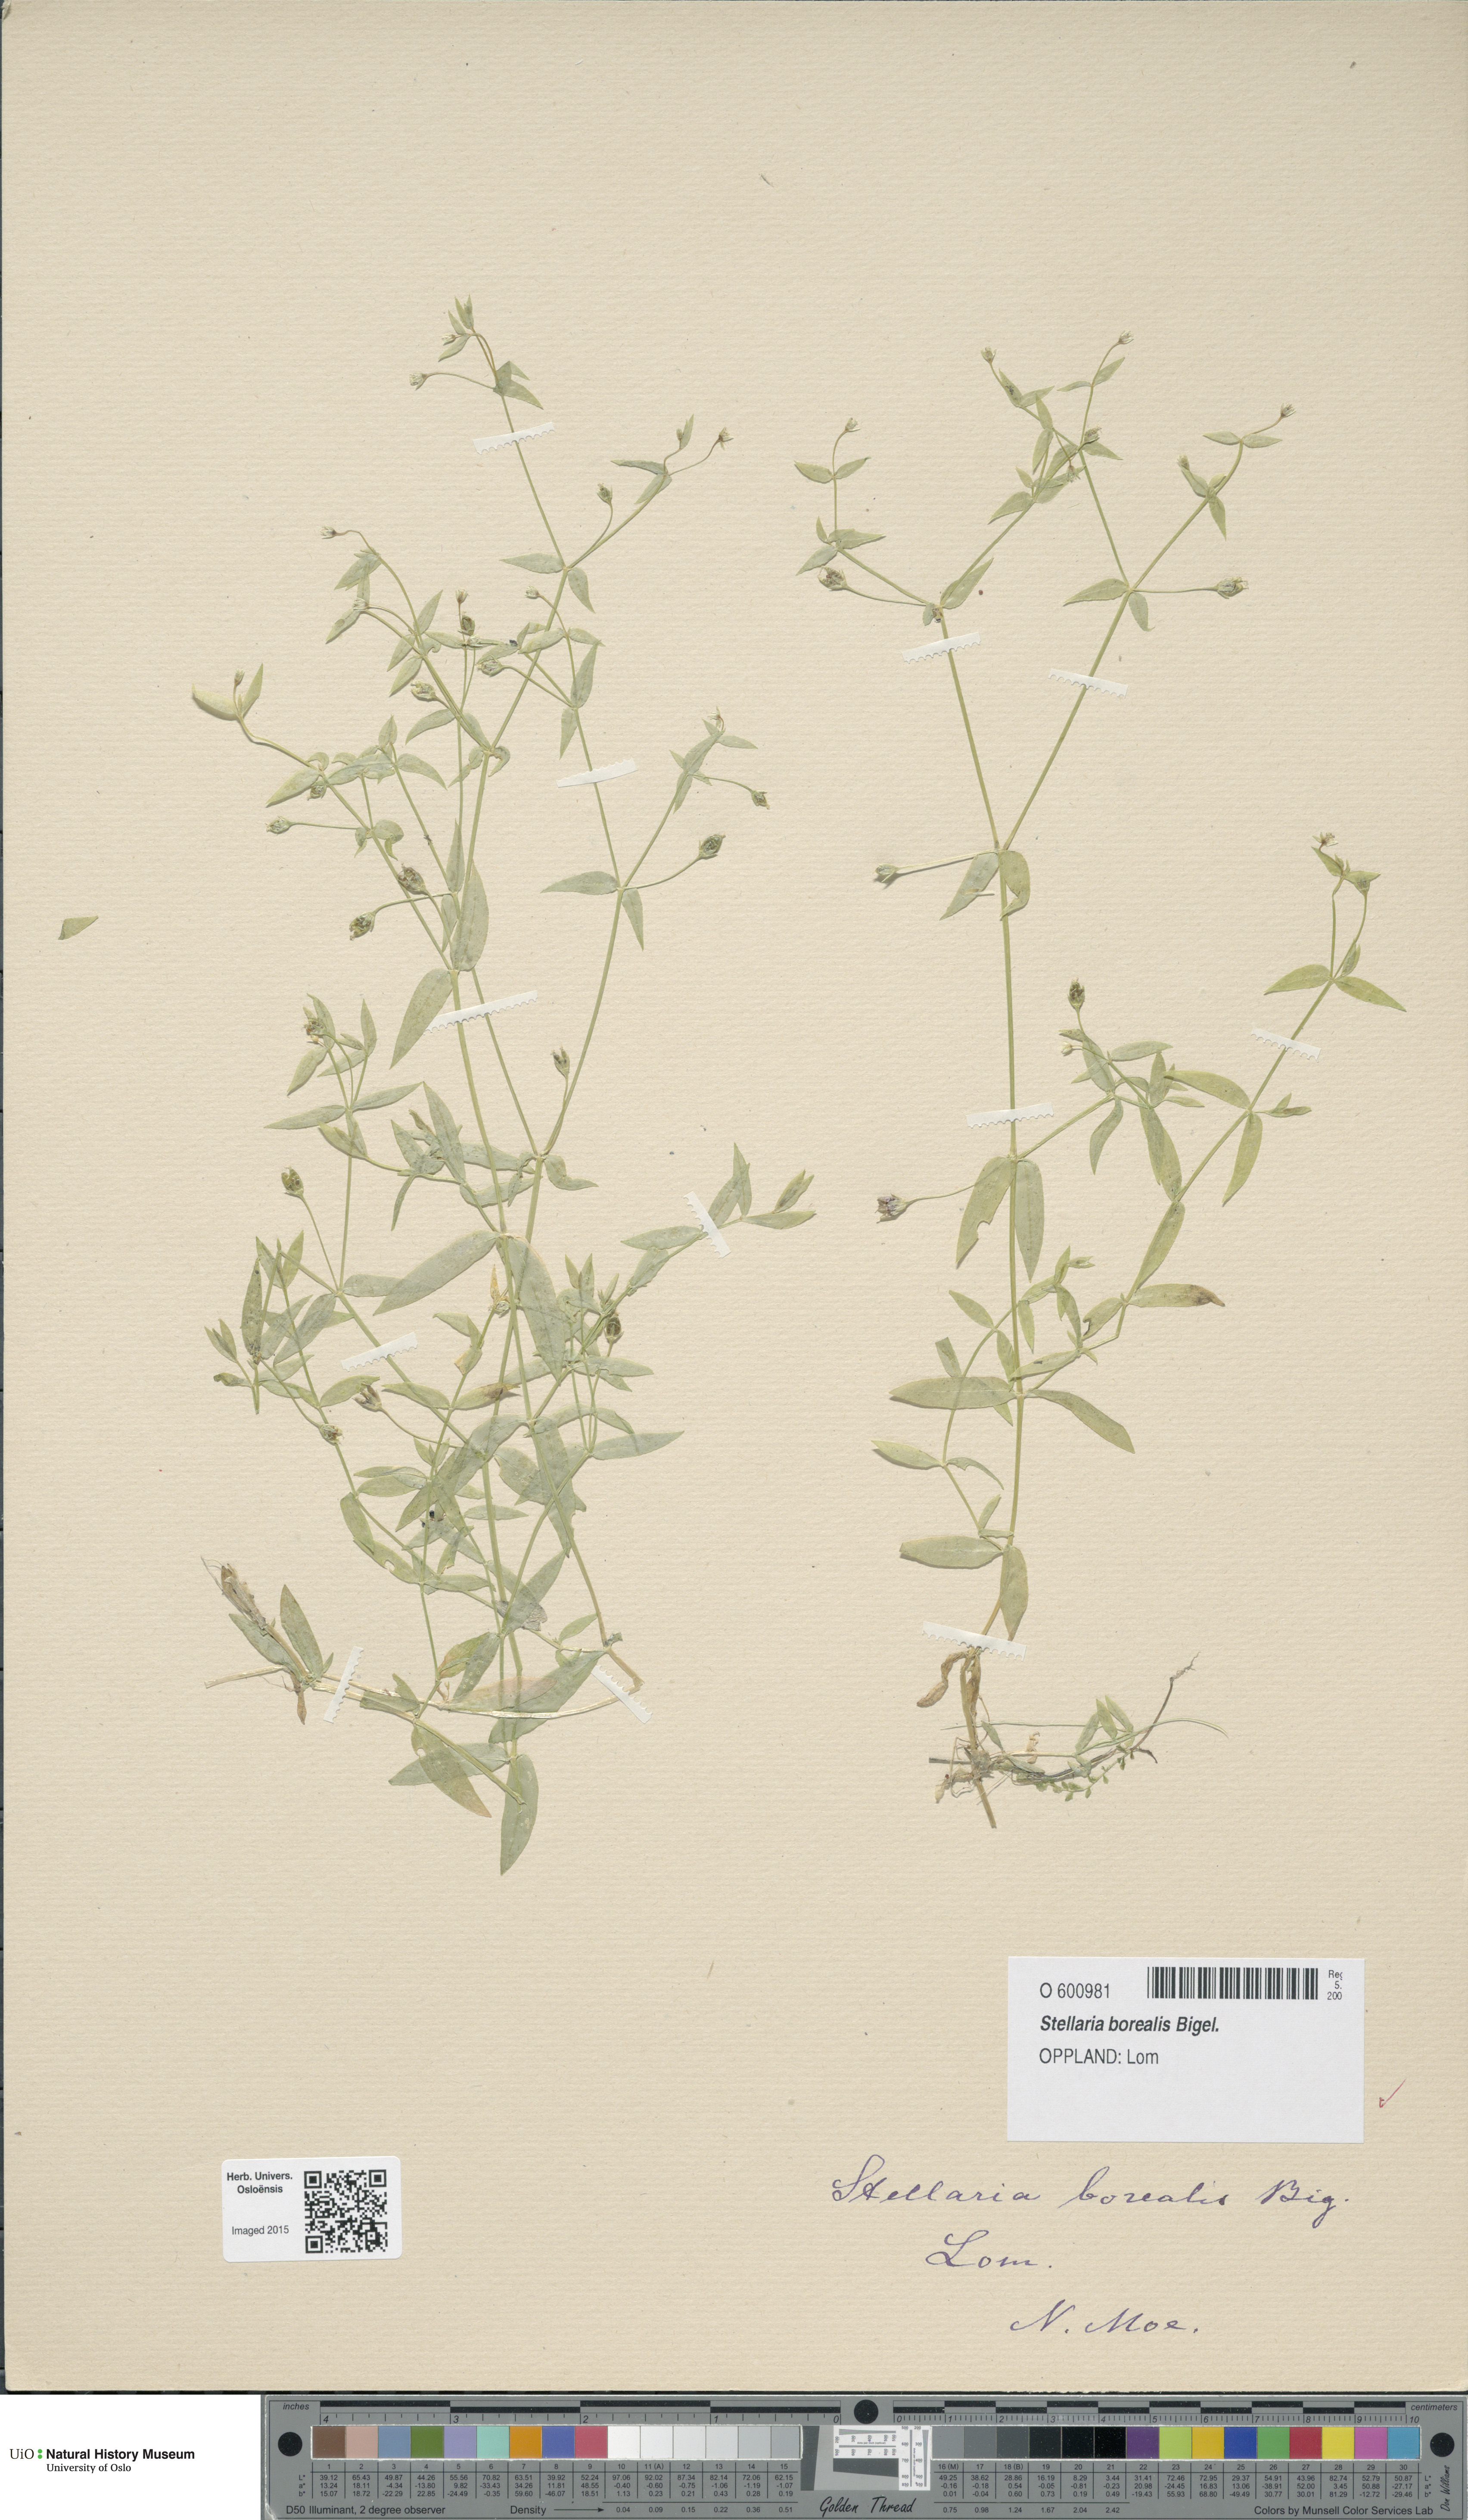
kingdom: Plantae
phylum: Tracheophyta
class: Magnoliopsida
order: Caryophyllales
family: Caryophyllaceae
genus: Stellaria
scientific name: Stellaria borealis
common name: Boreal starwort
